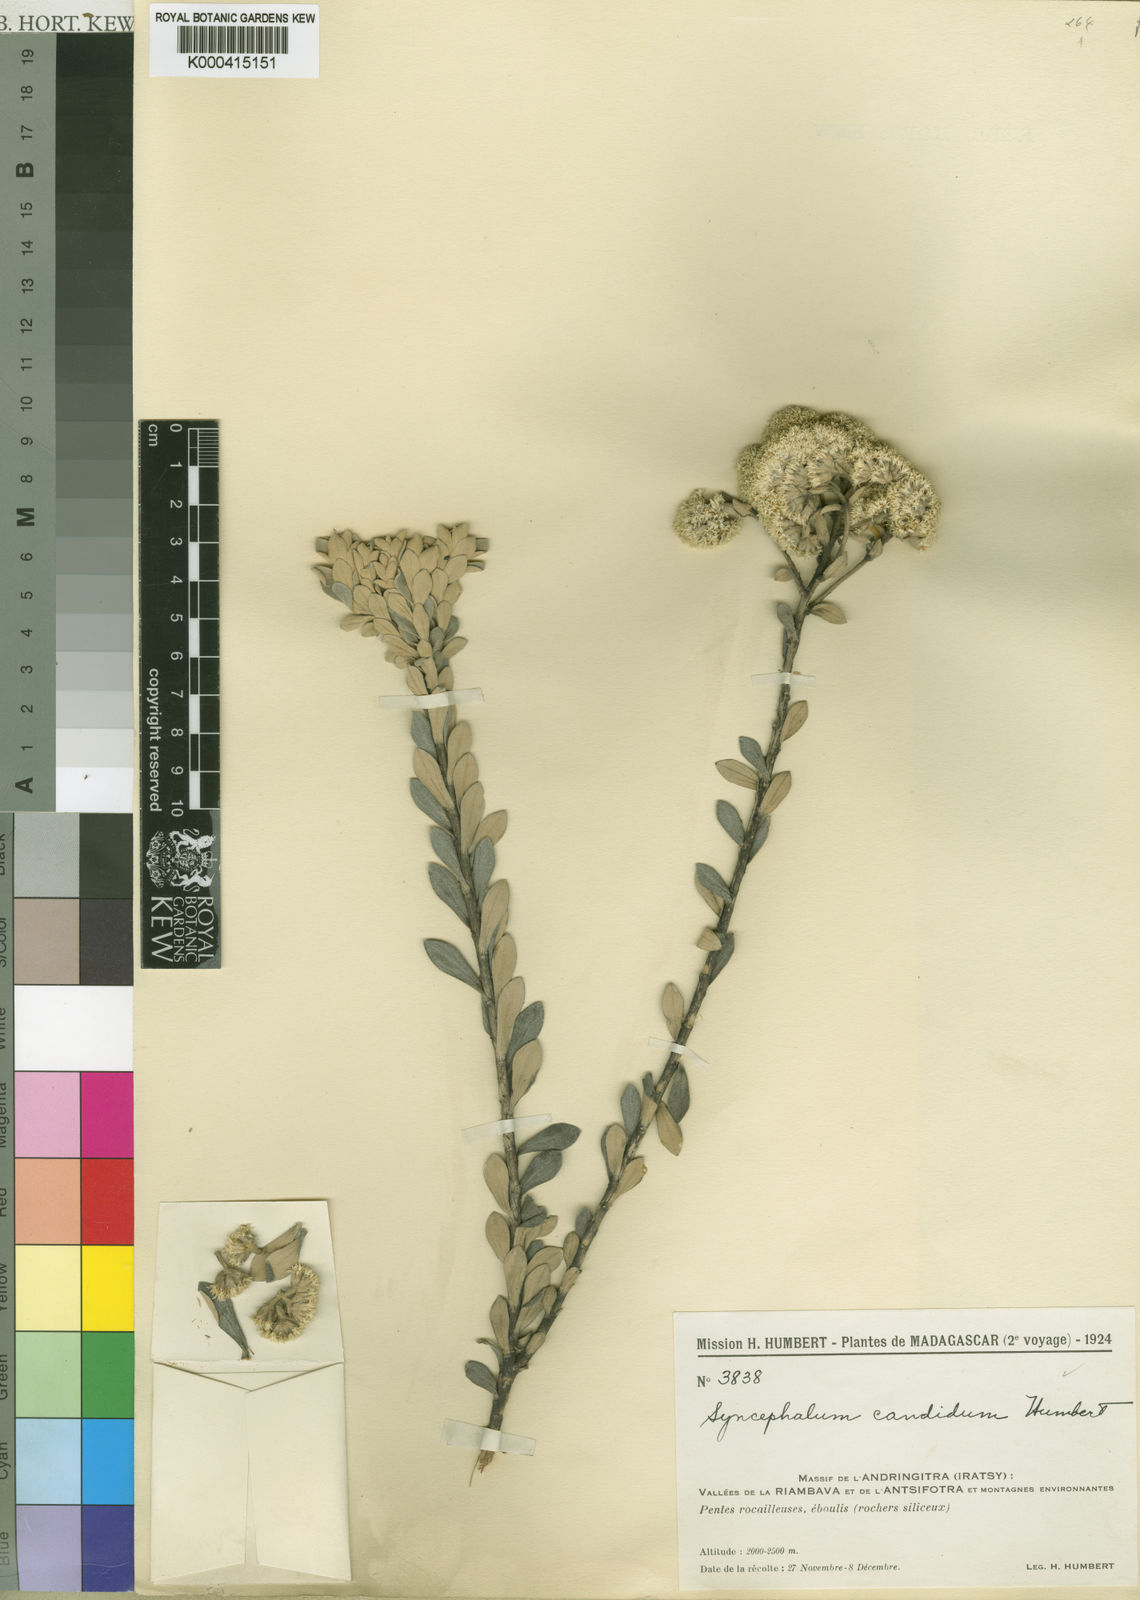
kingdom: Plantae
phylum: Tracheophyta
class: Magnoliopsida
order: Asterales
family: Asteraceae
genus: Syncephalum
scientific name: Syncephalum candidum
